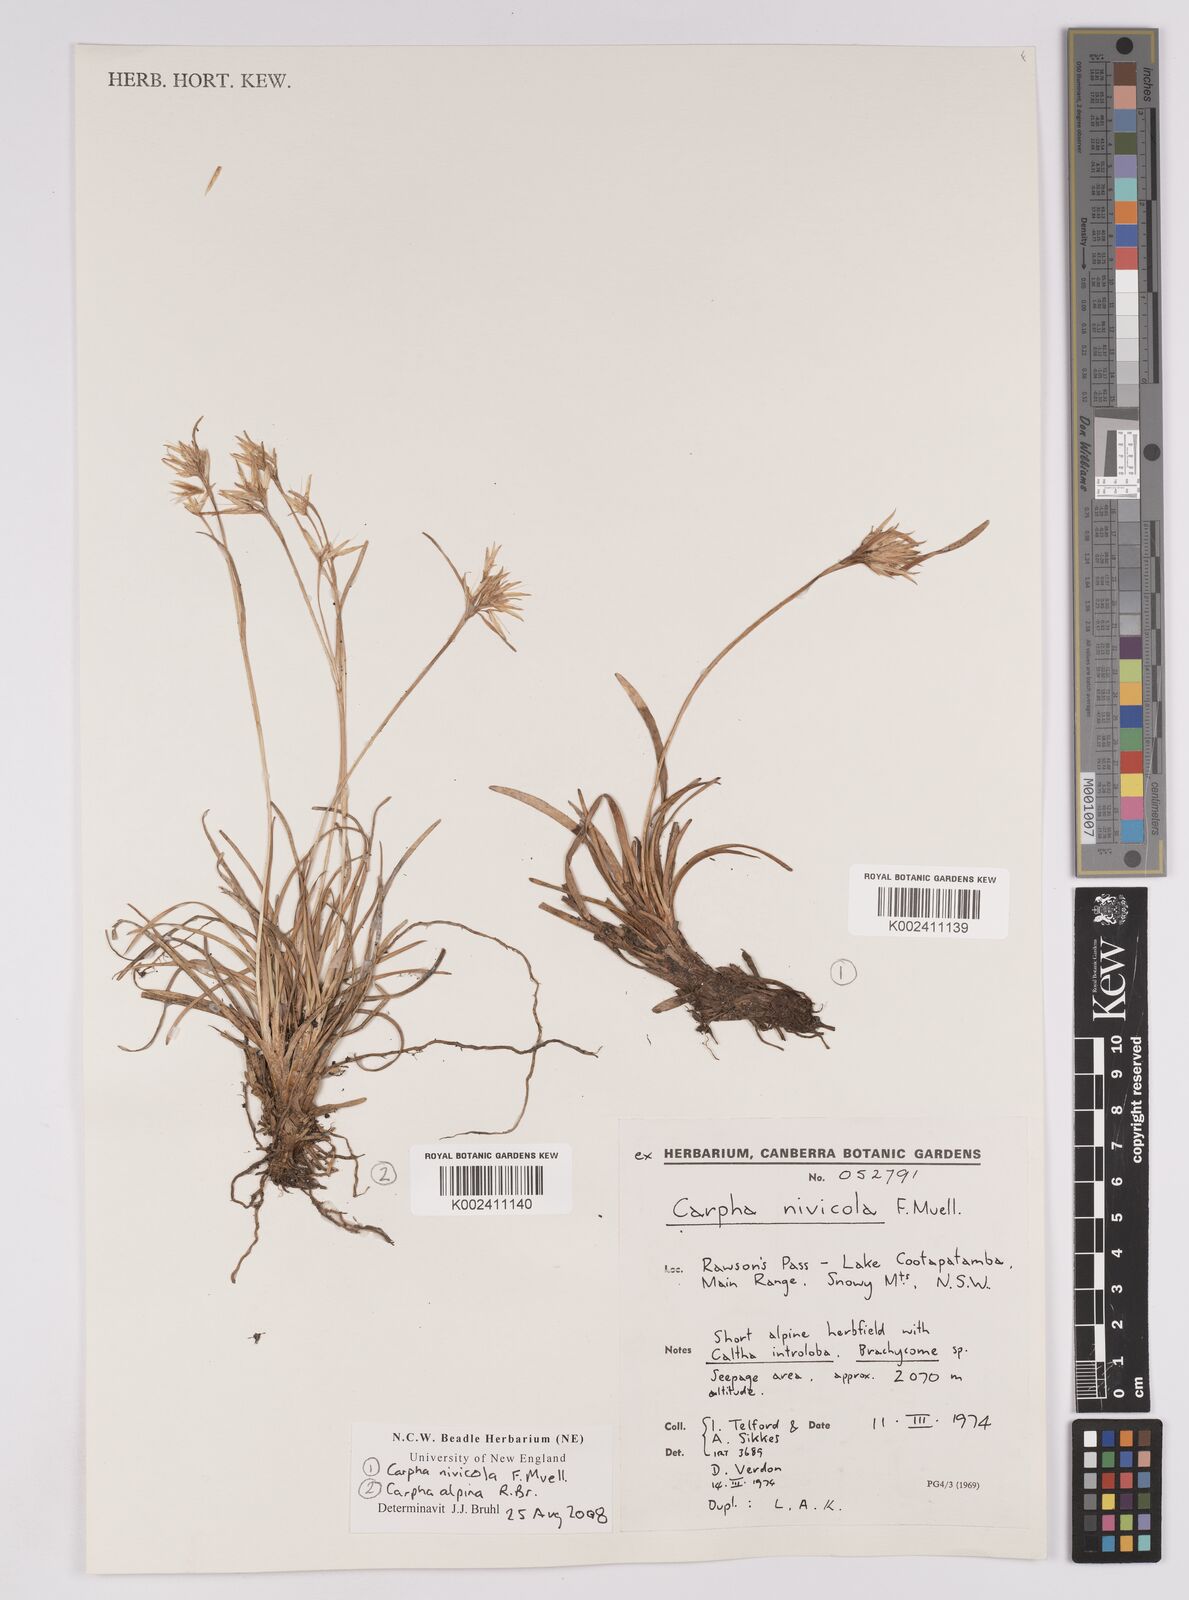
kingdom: Plantae
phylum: Tracheophyta
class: Liliopsida
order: Poales
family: Cyperaceae
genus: Carpha
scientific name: Carpha alpina
